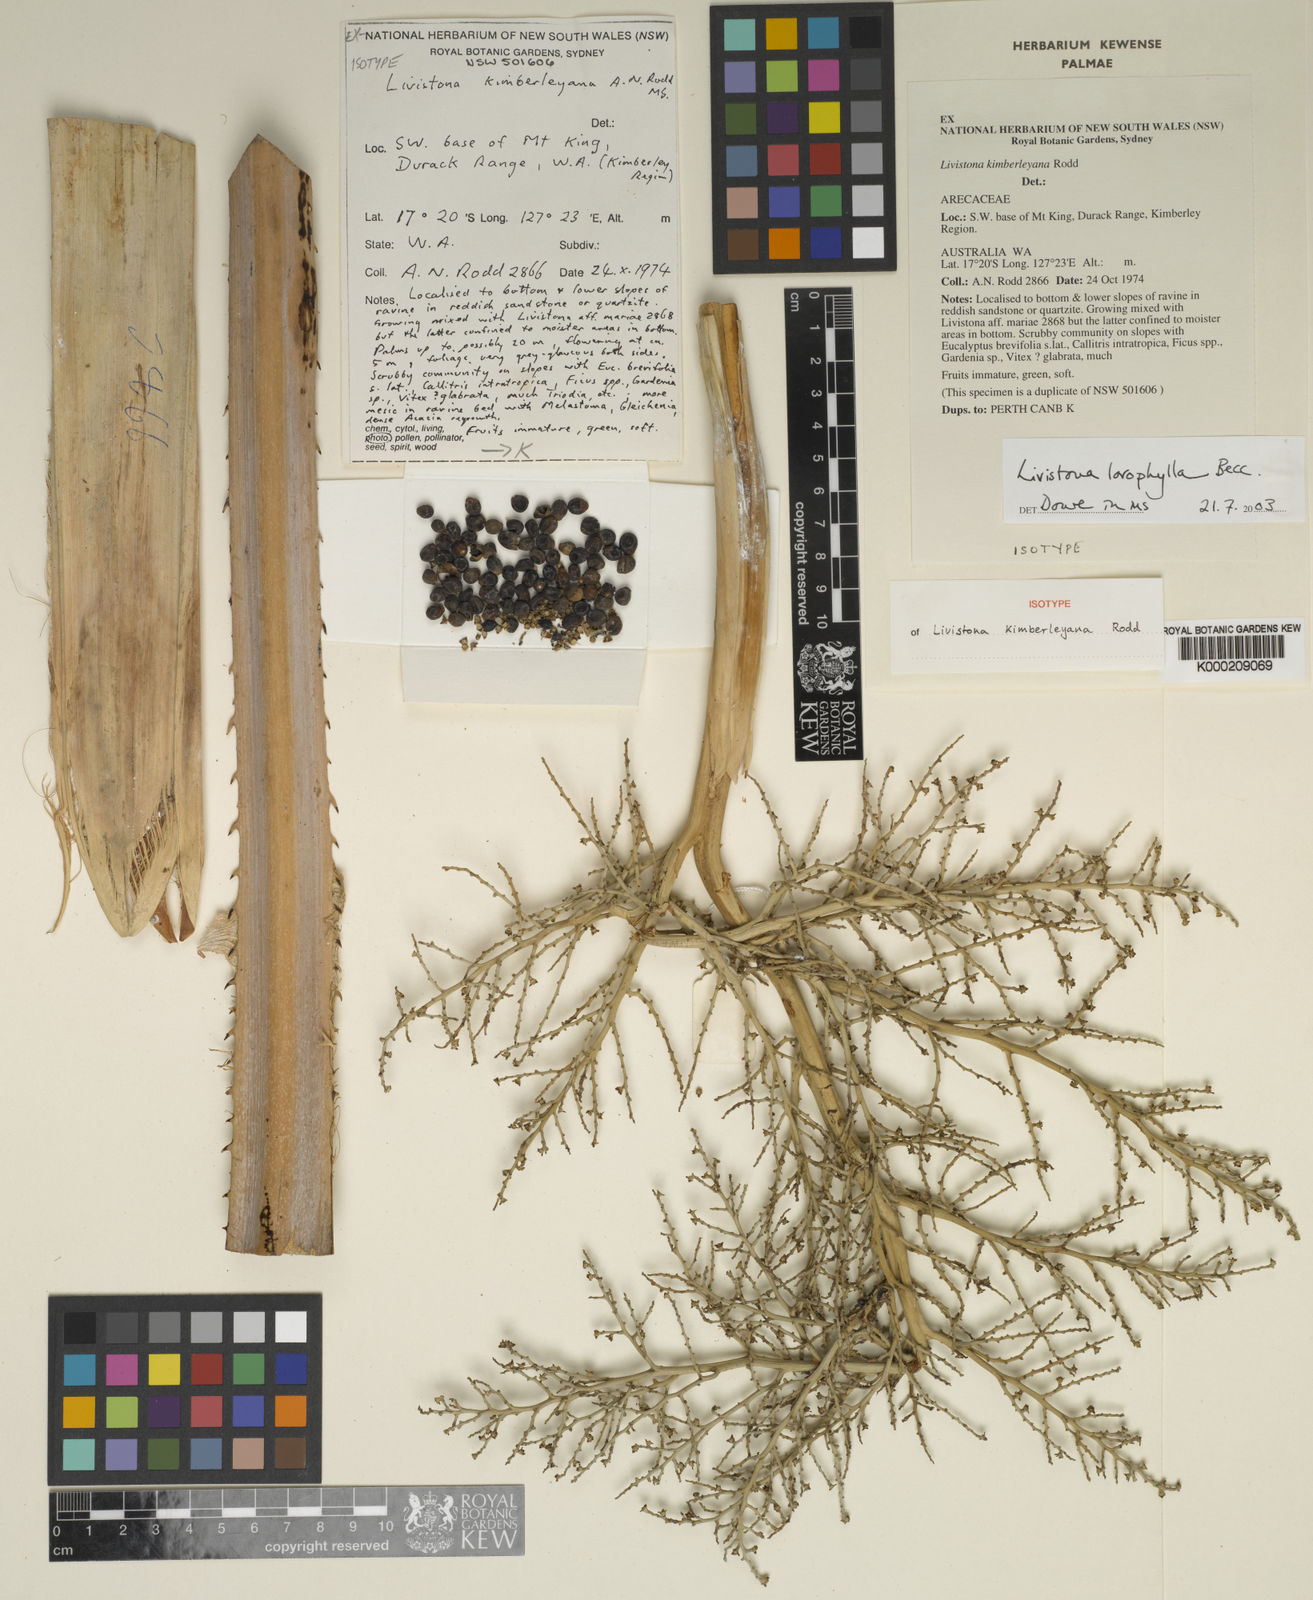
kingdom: Plantae
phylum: Tracheophyta
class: Liliopsida
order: Arecales
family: Arecaceae
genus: Livistona
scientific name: Livistona leichhardtii
